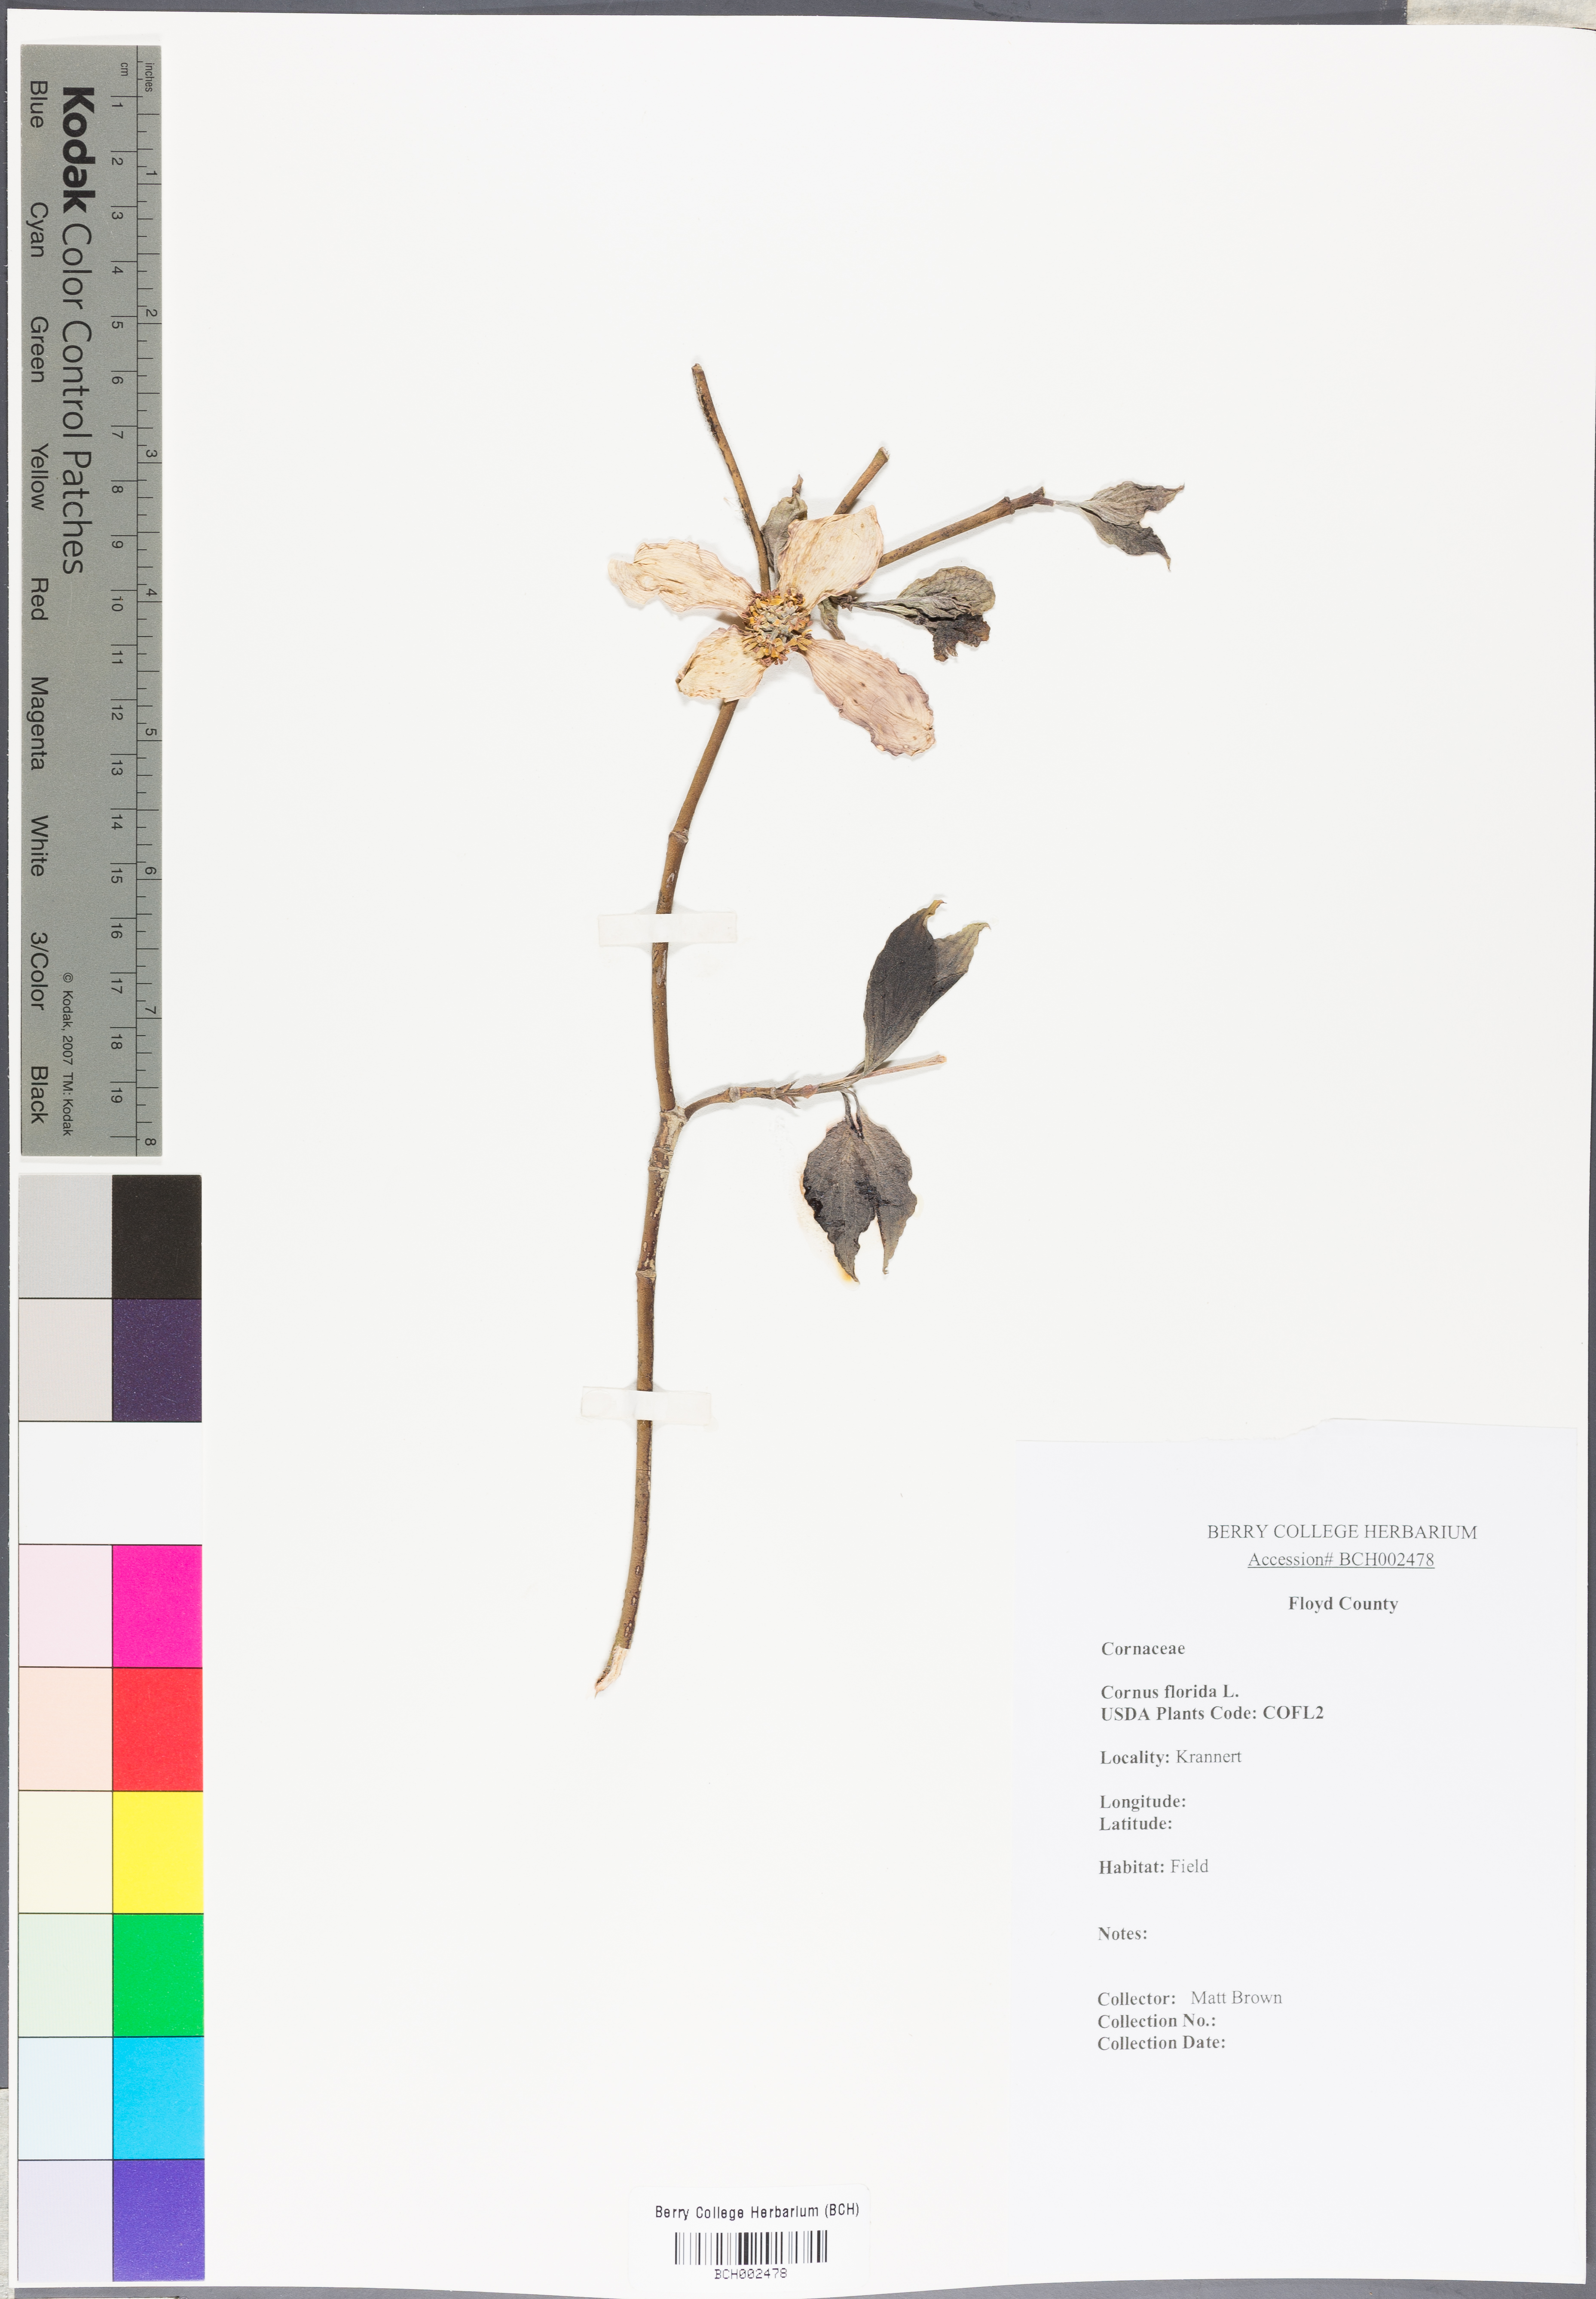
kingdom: Plantae
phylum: Tracheophyta
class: Magnoliopsida
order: Cornales
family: Cornaceae
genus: Cornus
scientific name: Cornus florida
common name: Flowering dogwood
